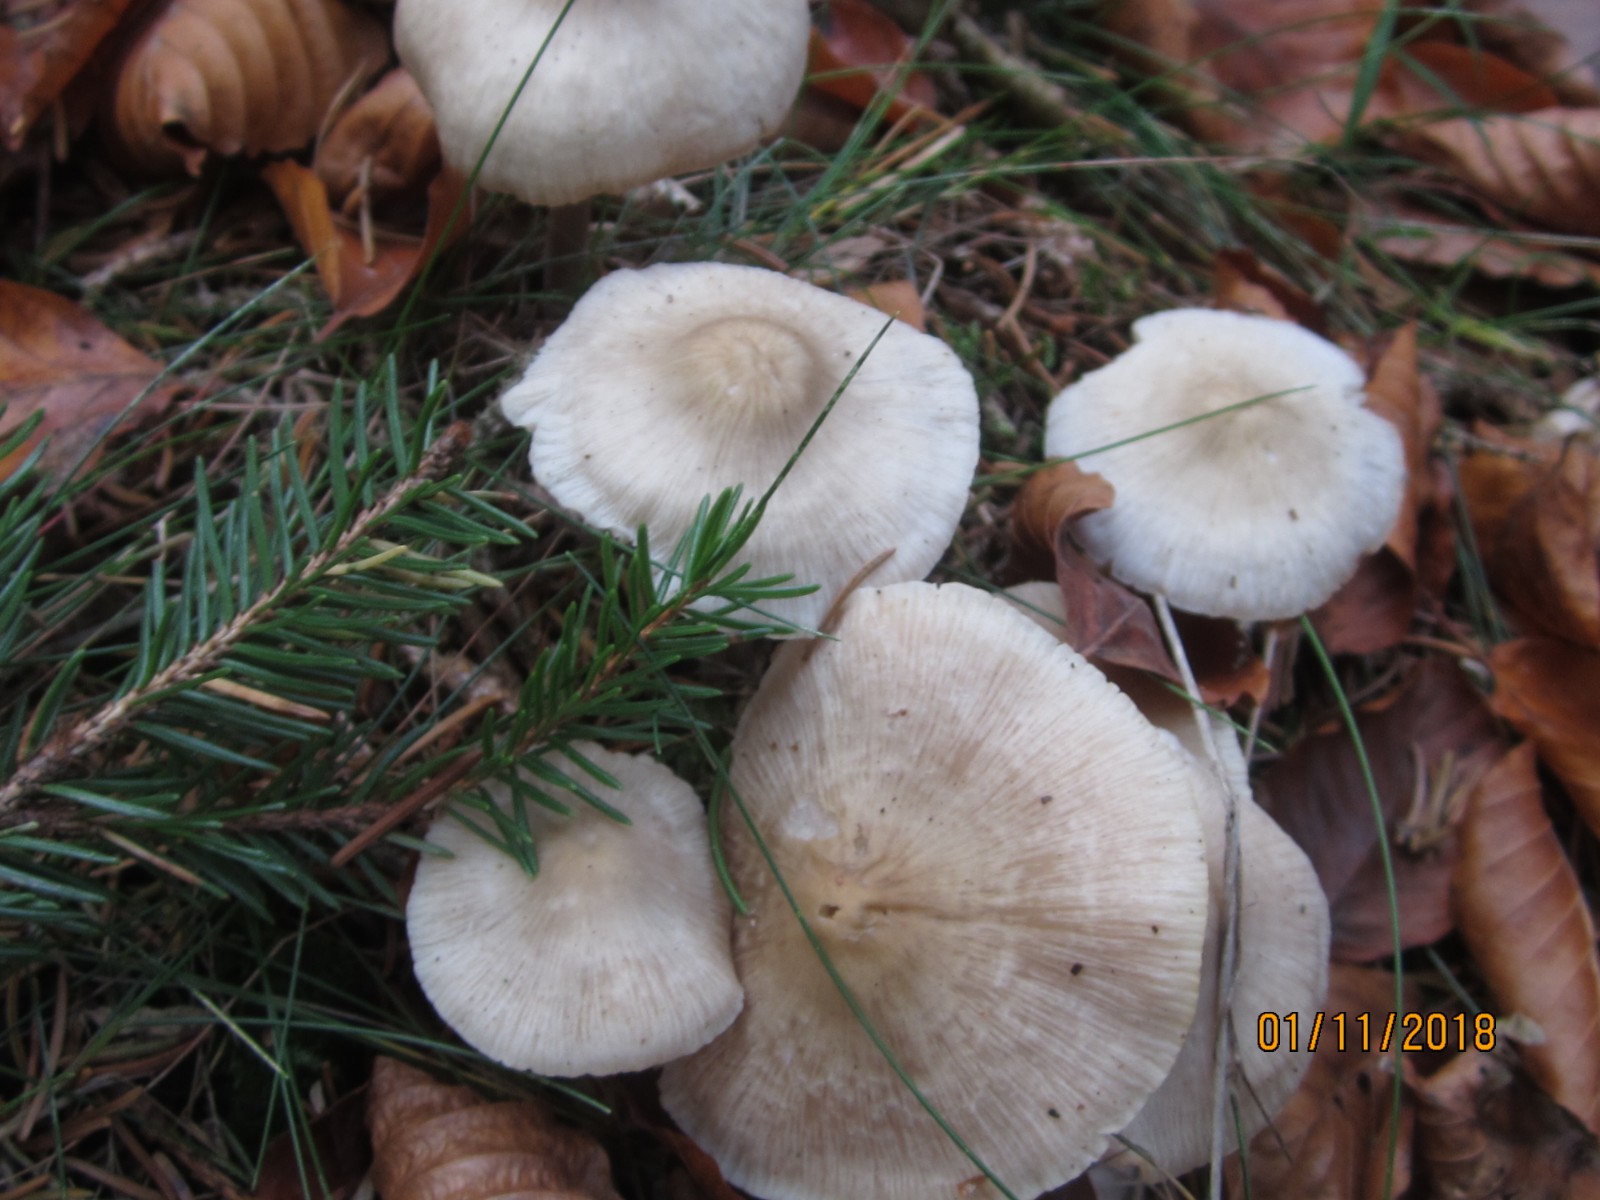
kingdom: Fungi
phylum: Basidiomycota
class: Agaricomycetes
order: Agaricales
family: Mycenaceae
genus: Mycena
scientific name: Mycena galericulata
